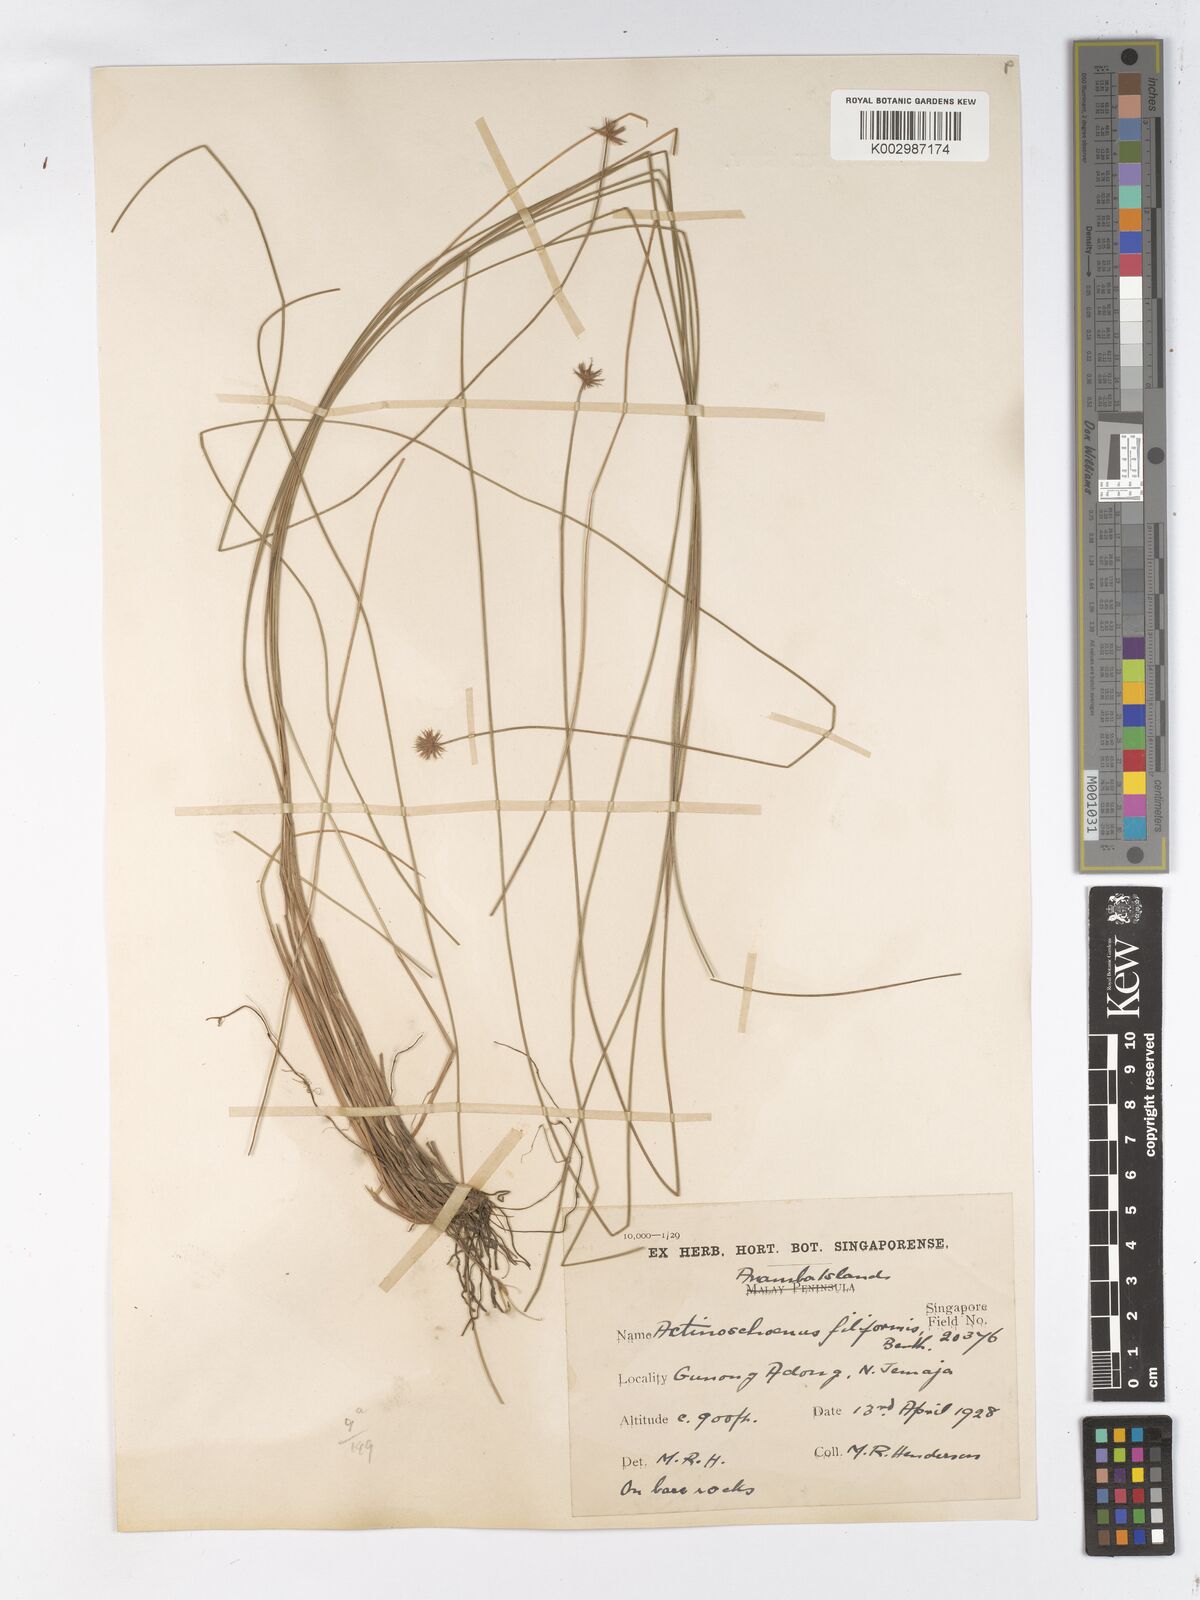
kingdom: Plantae
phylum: Tracheophyta
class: Liliopsida
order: Poales
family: Cyperaceae
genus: Actinoschoenus
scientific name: Actinoschoenus aphyllus
